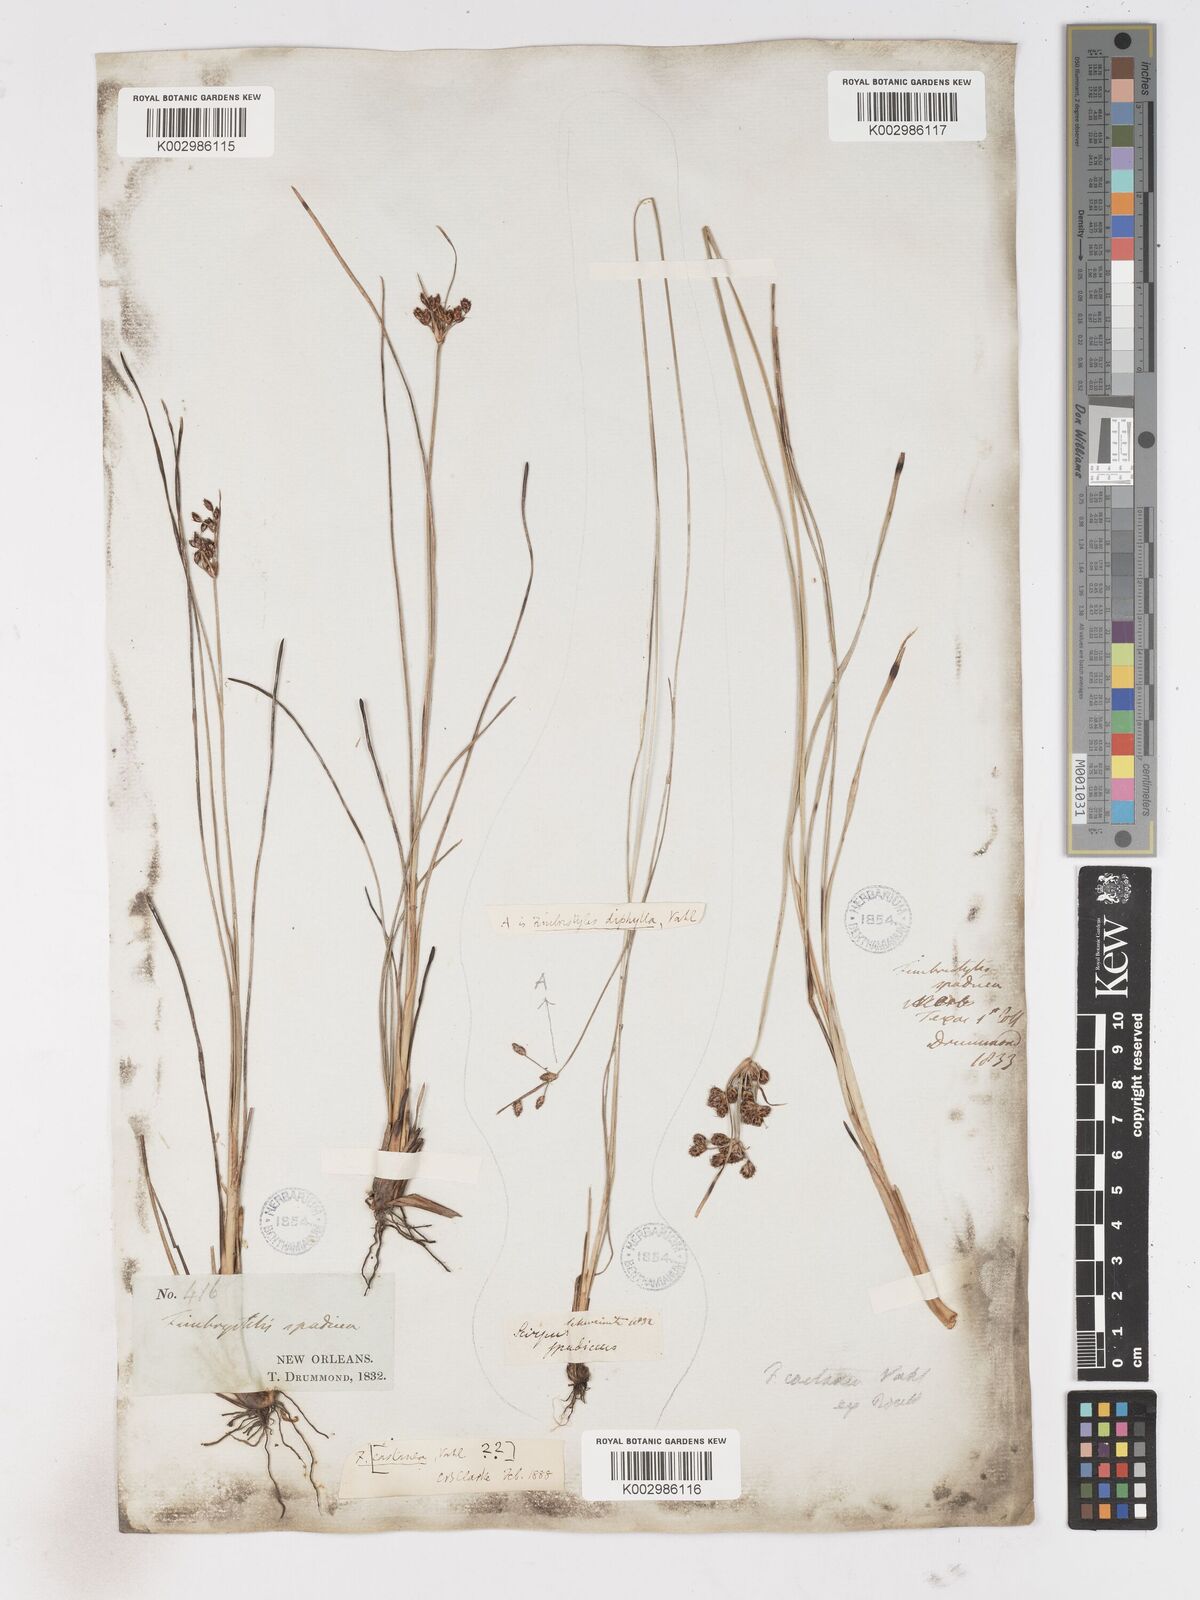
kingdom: Plantae
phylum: Tracheophyta
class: Liliopsida
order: Poales
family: Cyperaceae
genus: Fimbristylis
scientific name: Fimbristylis spadicea
